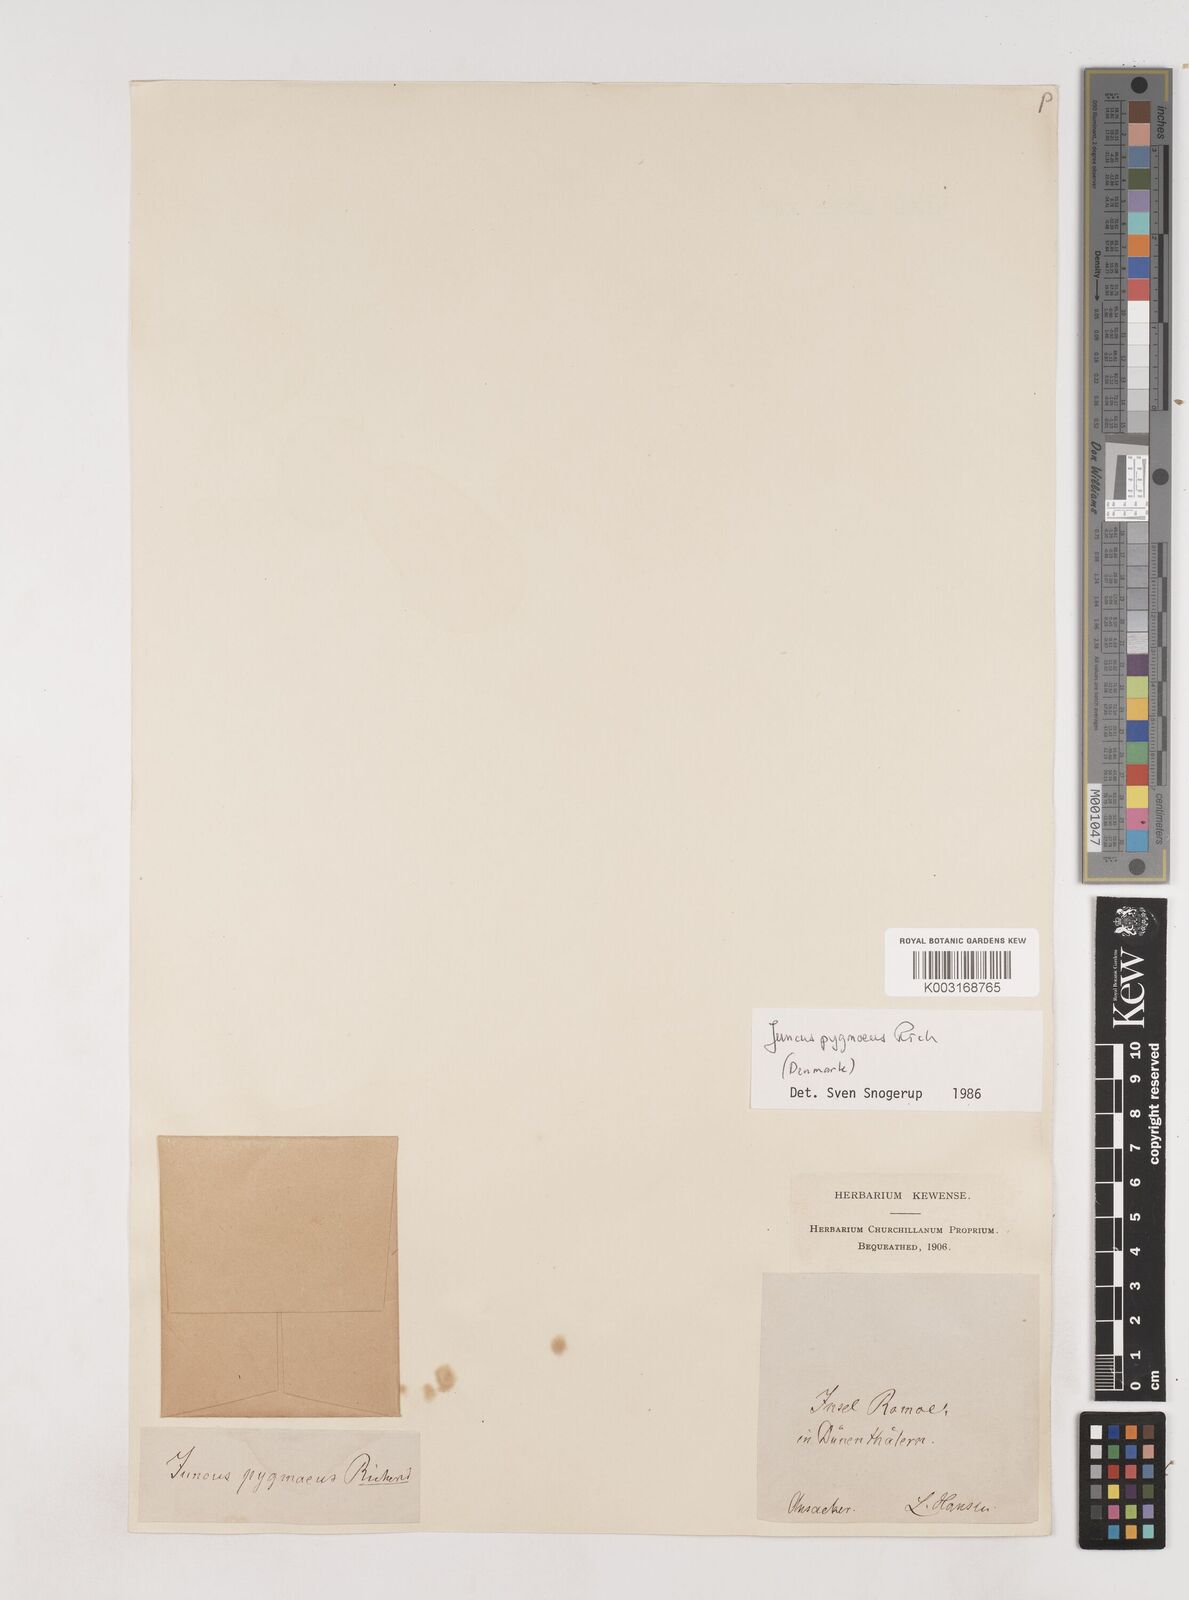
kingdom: Plantae
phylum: Tracheophyta
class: Liliopsida
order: Poales
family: Juncaceae
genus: Juncus
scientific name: Juncus pygmaeus
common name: Pigmy rush
